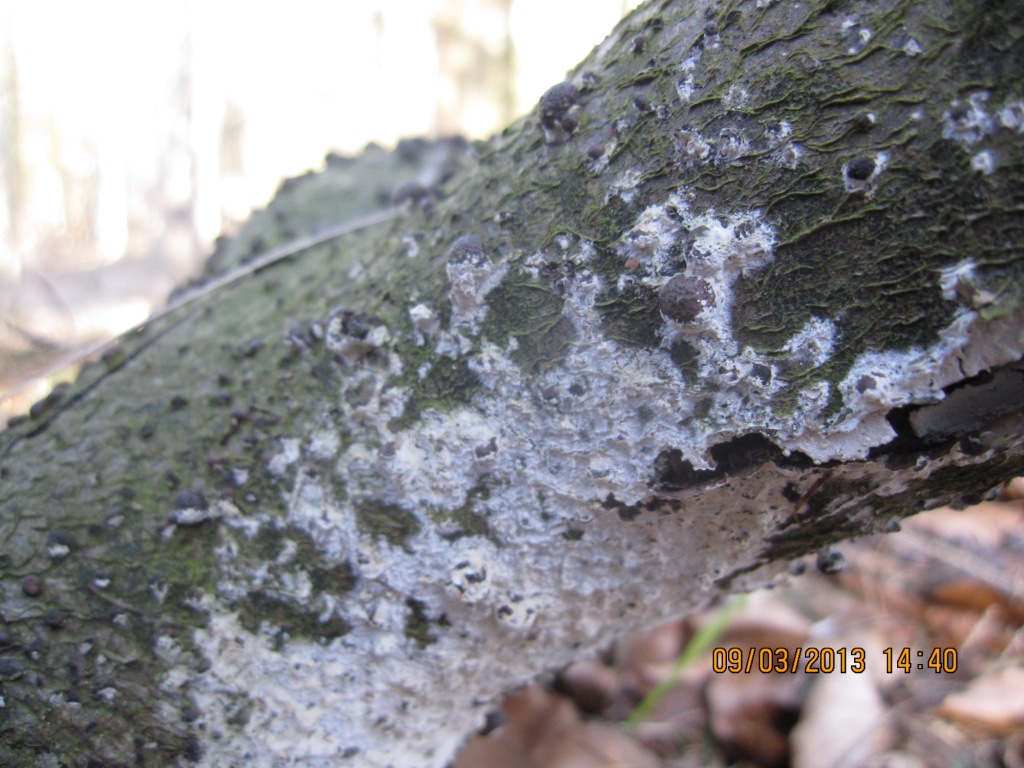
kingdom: Fungi
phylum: Basidiomycota
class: Agaricomycetes
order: Polyporales
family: Hyphodermataceae
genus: Hyphoderma
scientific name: Hyphoderma setigerum
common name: håret kalkskind
